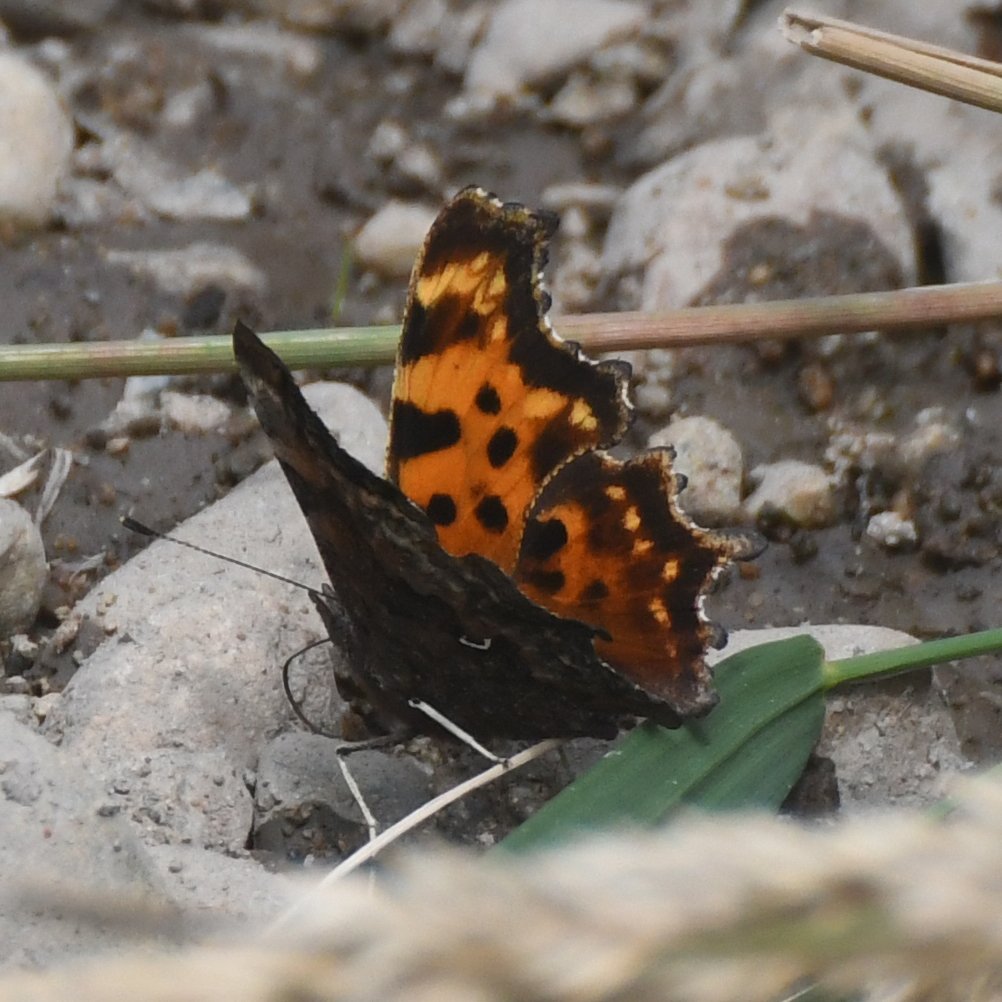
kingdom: Animalia
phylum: Arthropoda
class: Insecta
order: Lepidoptera
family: Nymphalidae
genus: Polygonia
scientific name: Polygonia faunus
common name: Green Comma
